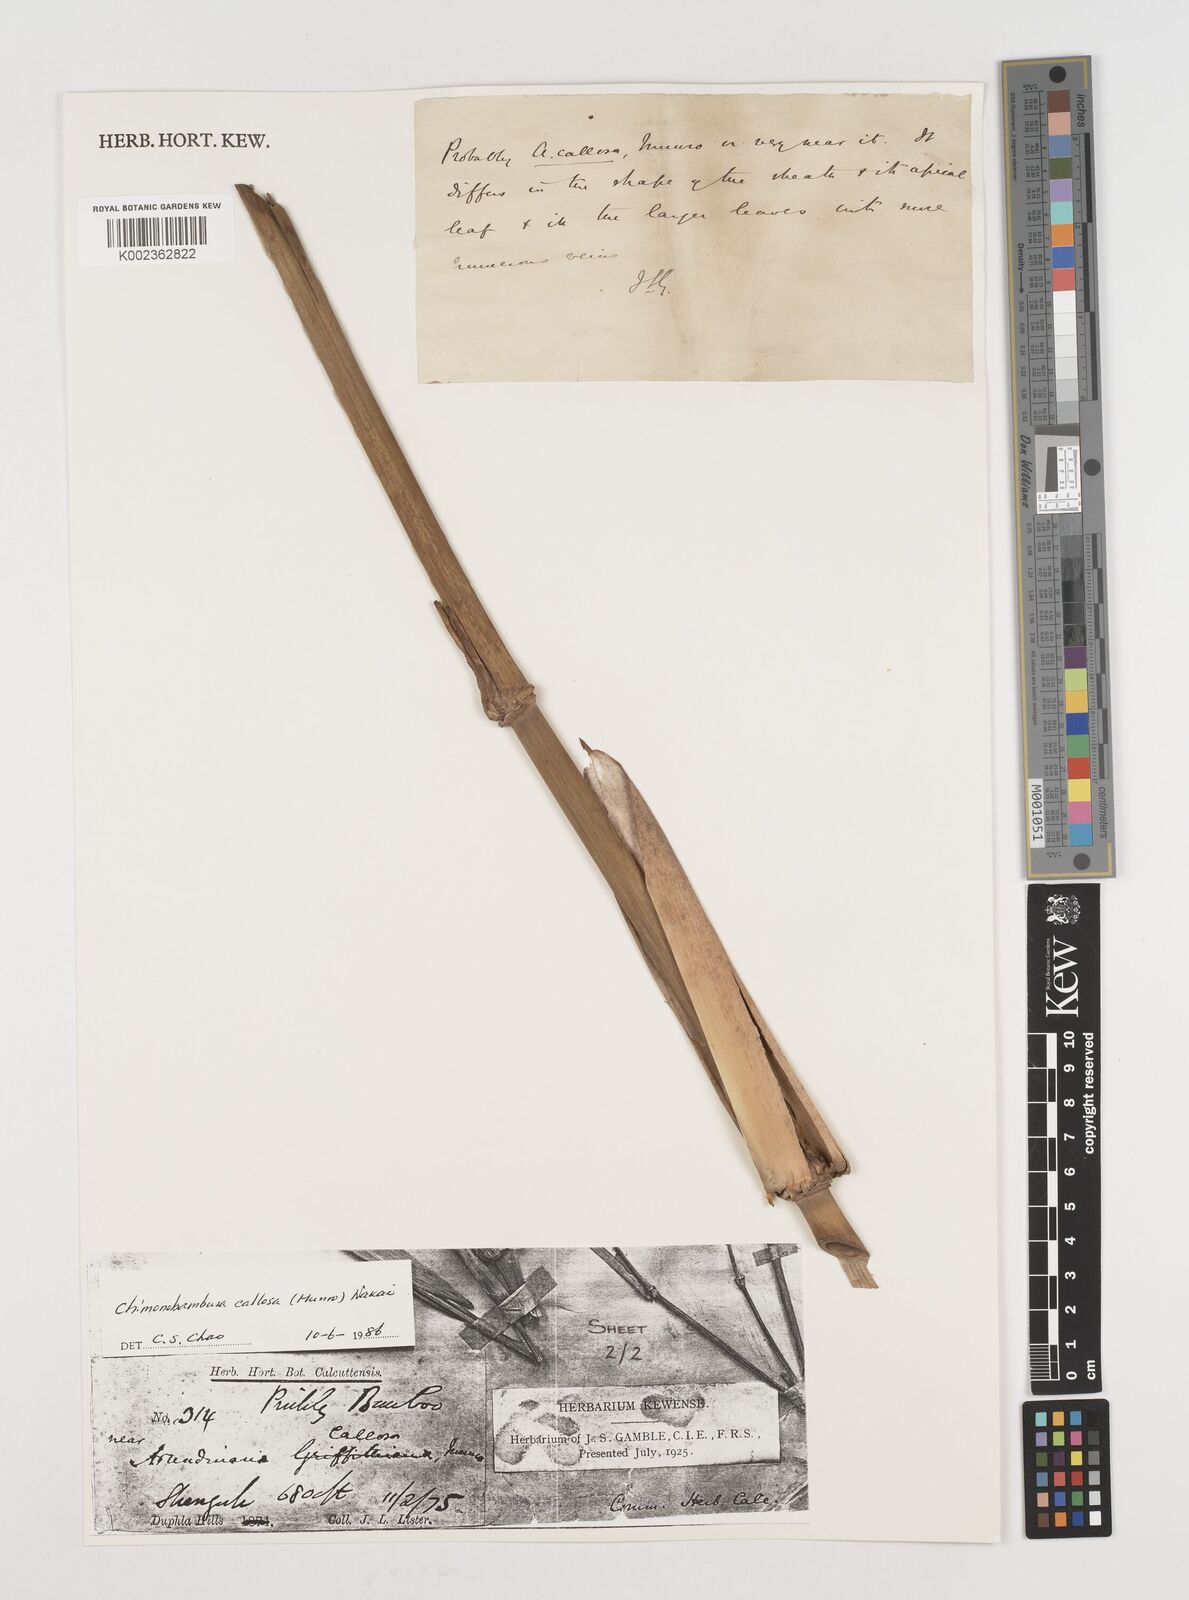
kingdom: Plantae
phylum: Tracheophyta
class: Liliopsida
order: Poales
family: Poaceae
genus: Chimonobambusa
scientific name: Chimonobambusa callosa
